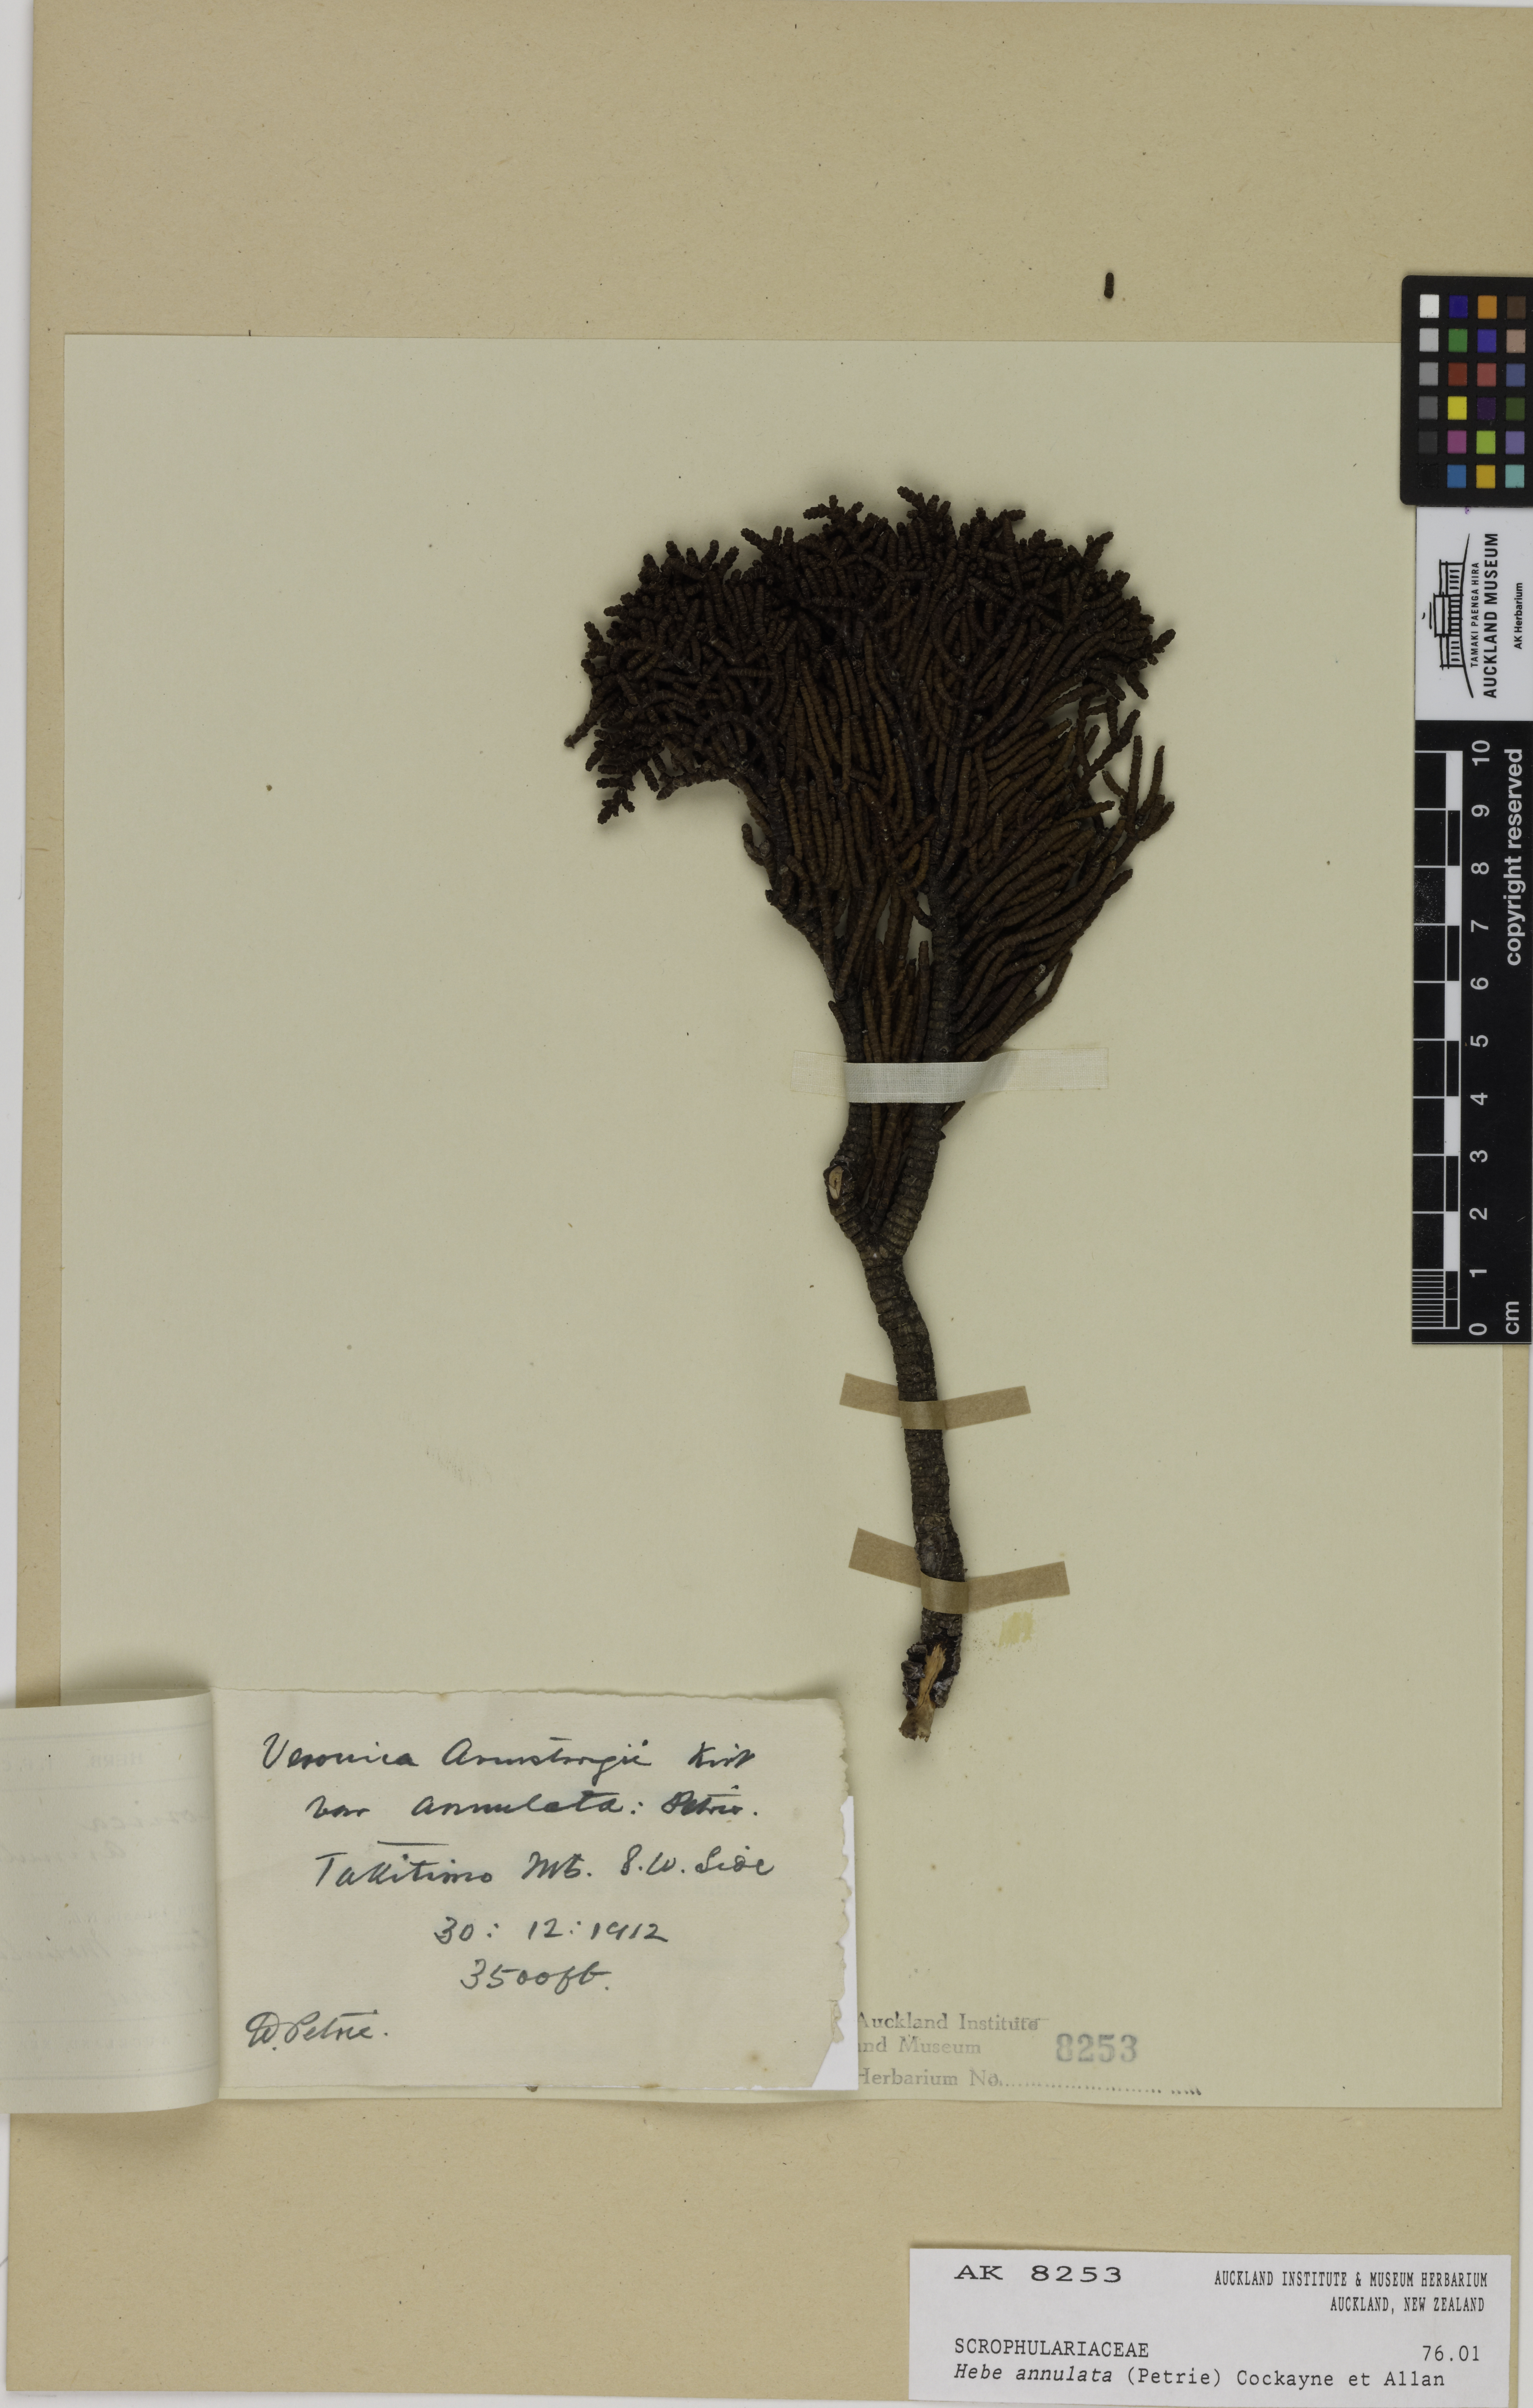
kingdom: Plantae
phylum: Tracheophyta
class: Magnoliopsida
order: Lamiales
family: Plantaginaceae
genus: Veronica
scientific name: Veronica annulata
